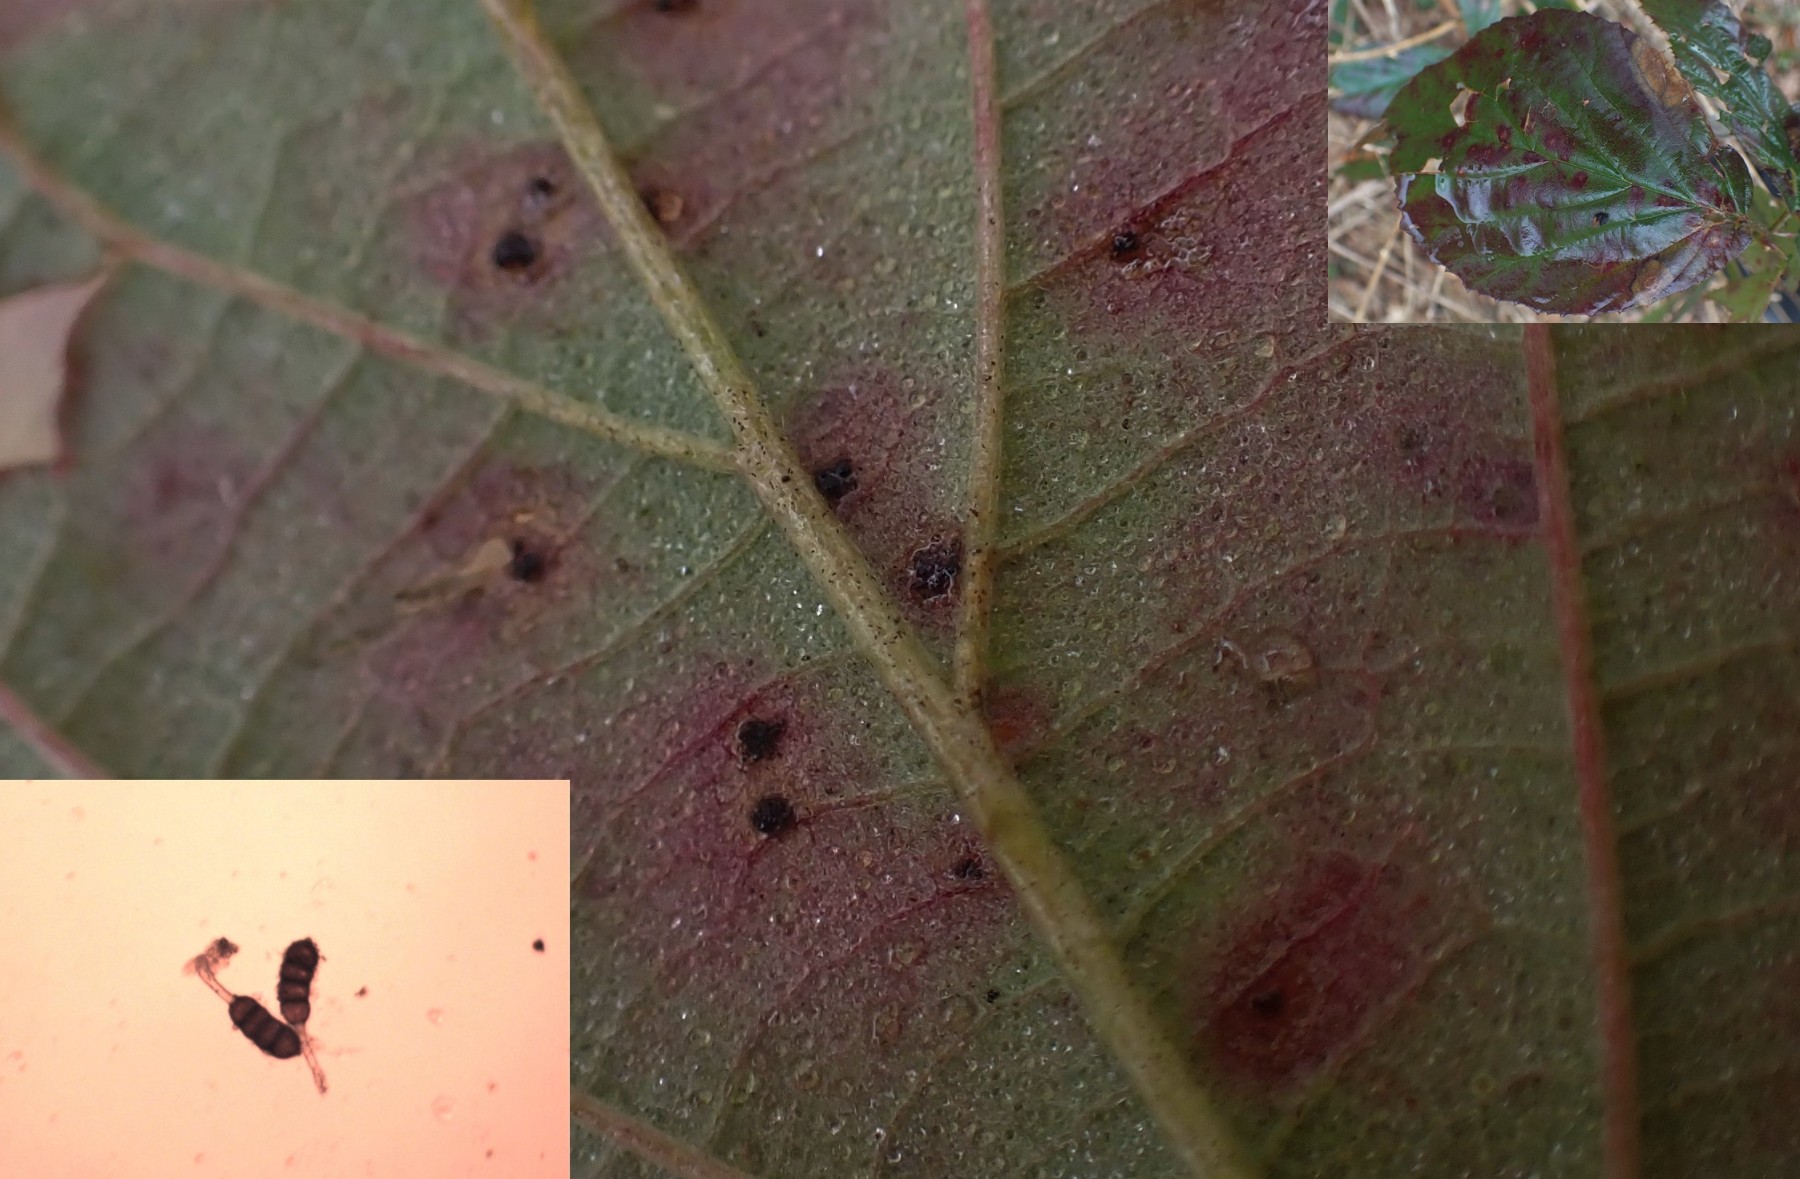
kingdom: Fungi
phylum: Basidiomycota
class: Pucciniomycetes
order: Pucciniales
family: Phragmidiaceae
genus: Phragmidium
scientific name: Phragmidium violaceum
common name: violet flercellerust
